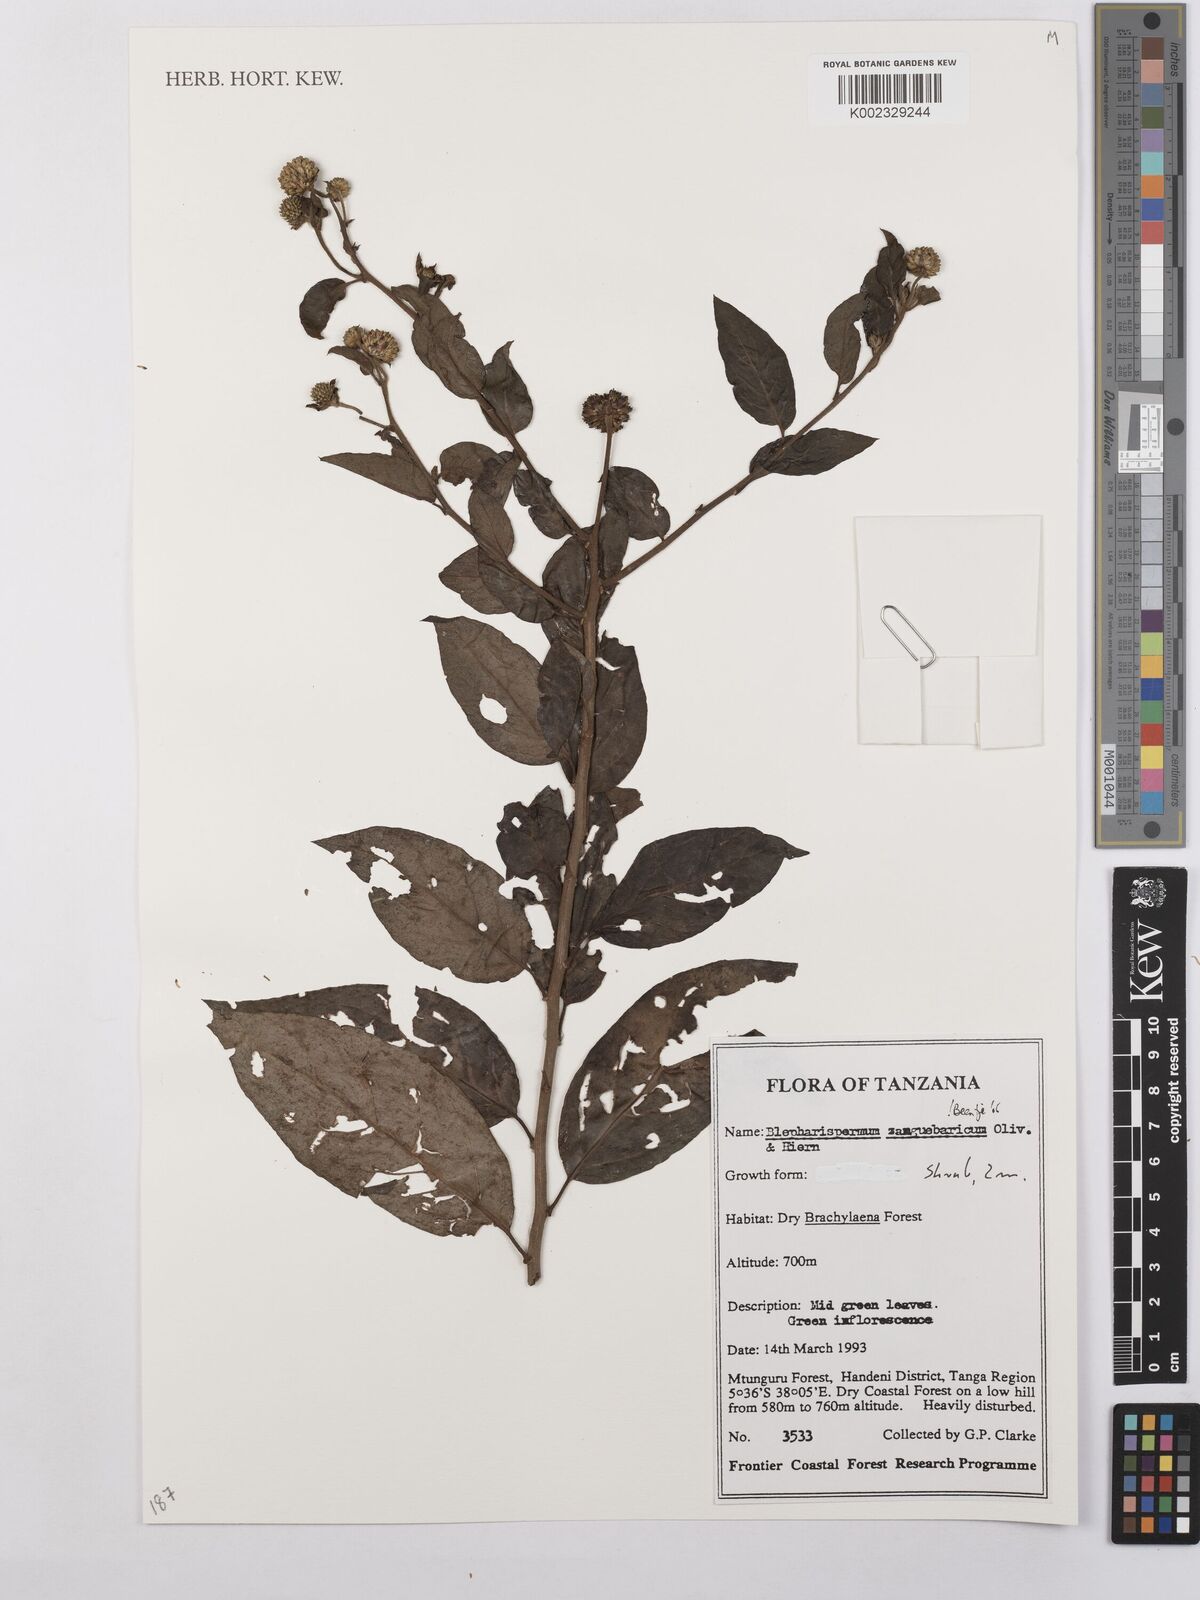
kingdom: Plantae
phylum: Tracheophyta
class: Magnoliopsida
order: Asterales
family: Asteraceae
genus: Blepharispermum
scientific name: Blepharispermum zanguebaricum
